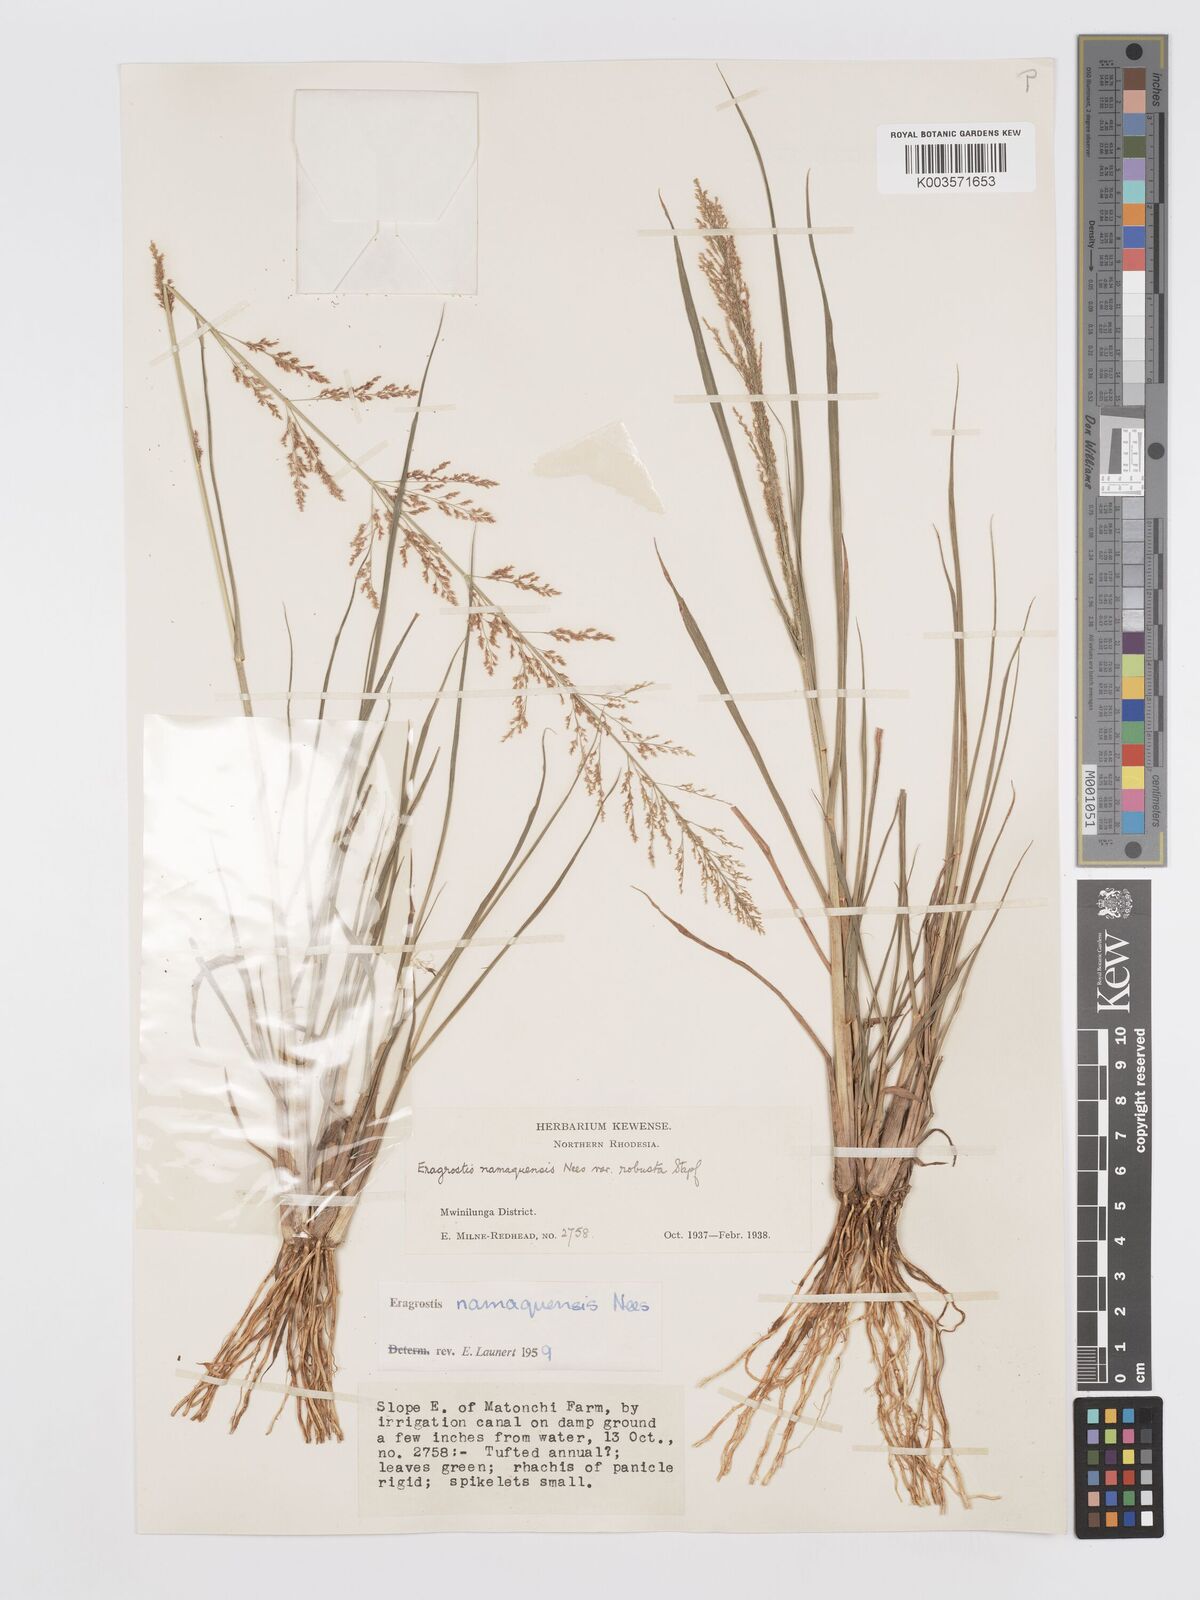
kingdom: Plantae
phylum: Tracheophyta
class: Liliopsida
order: Poales
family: Poaceae
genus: Eragrostis
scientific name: Eragrostis japonica
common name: Pond lovegrass
